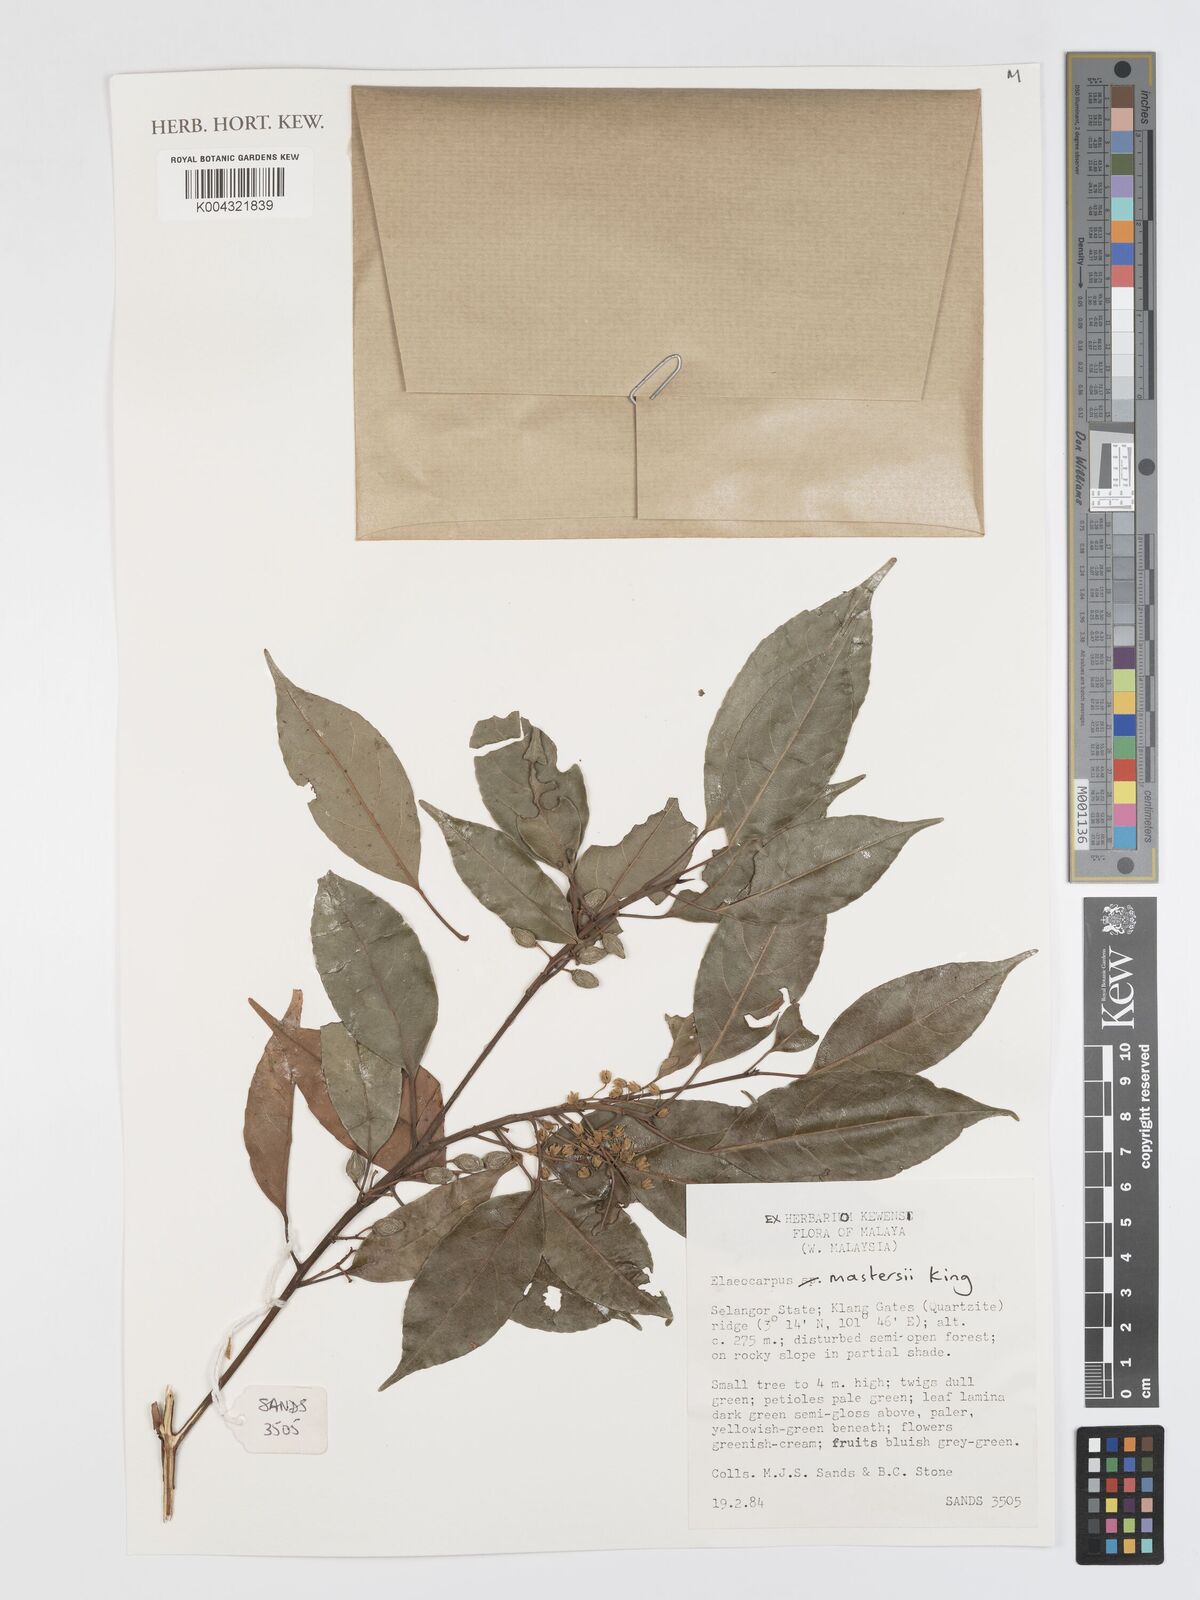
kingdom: Plantae
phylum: Tracheophyta
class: Magnoliopsida
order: Oxalidales
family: Elaeocarpaceae
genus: Elaeocarpus
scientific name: Elaeocarpus mastersii
